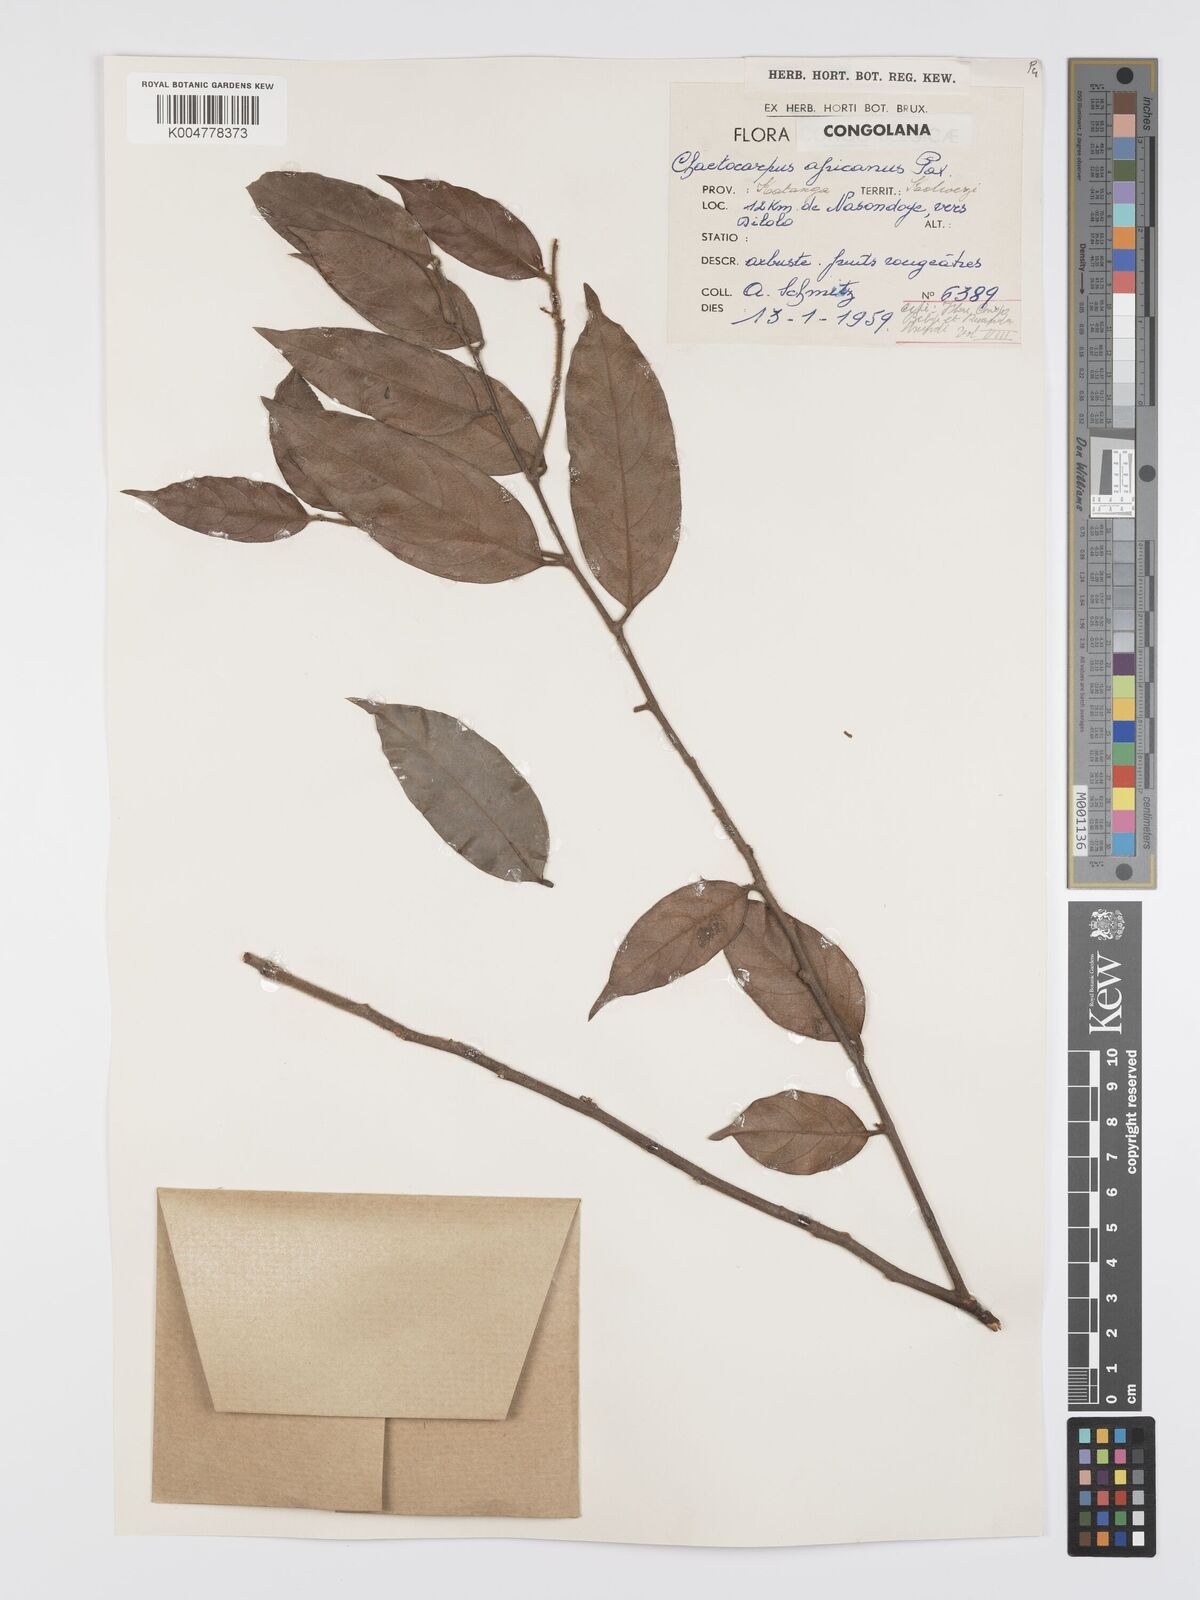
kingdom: Plantae
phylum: Tracheophyta
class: Magnoliopsida
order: Malpighiales
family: Peraceae
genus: Chaetocarpus
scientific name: Chaetocarpus africanus
